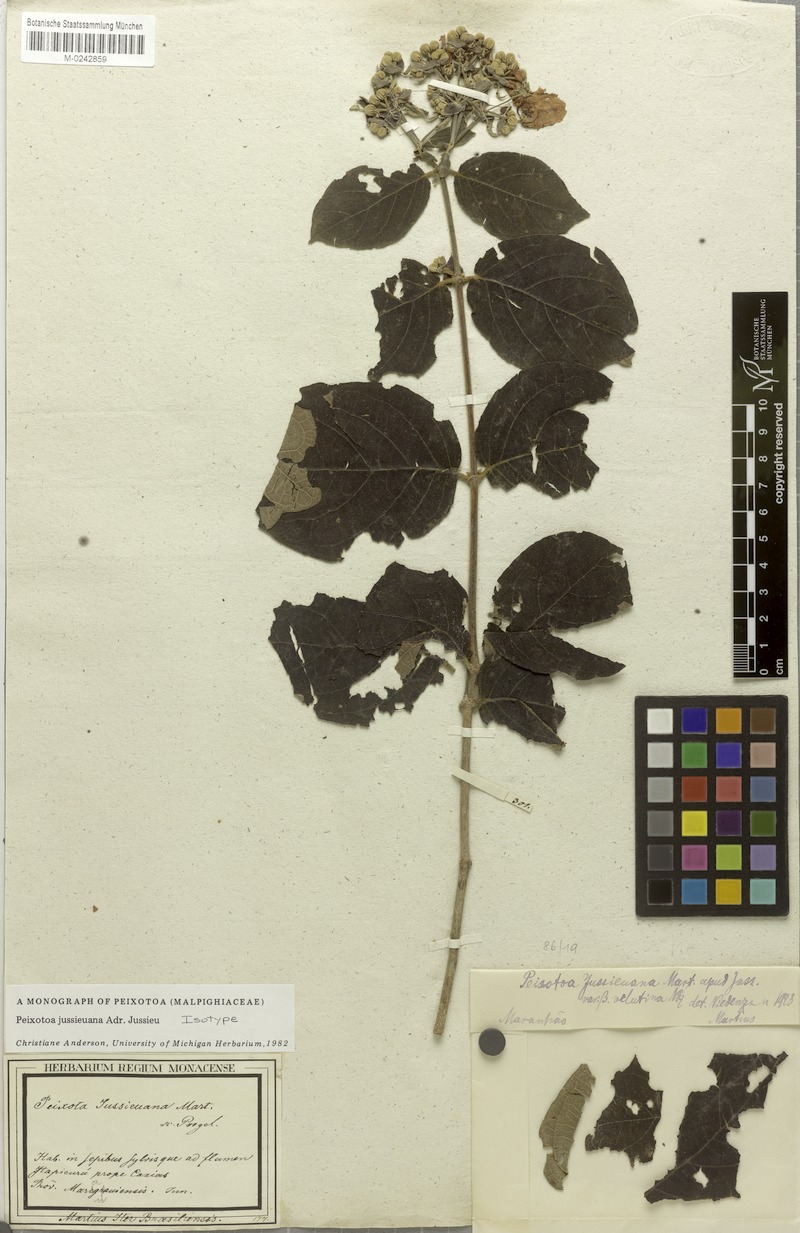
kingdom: Plantae
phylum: Tracheophyta
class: Magnoliopsida
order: Malpighiales
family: Malpighiaceae
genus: Peixotoa
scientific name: Peixotoa jussieuana
